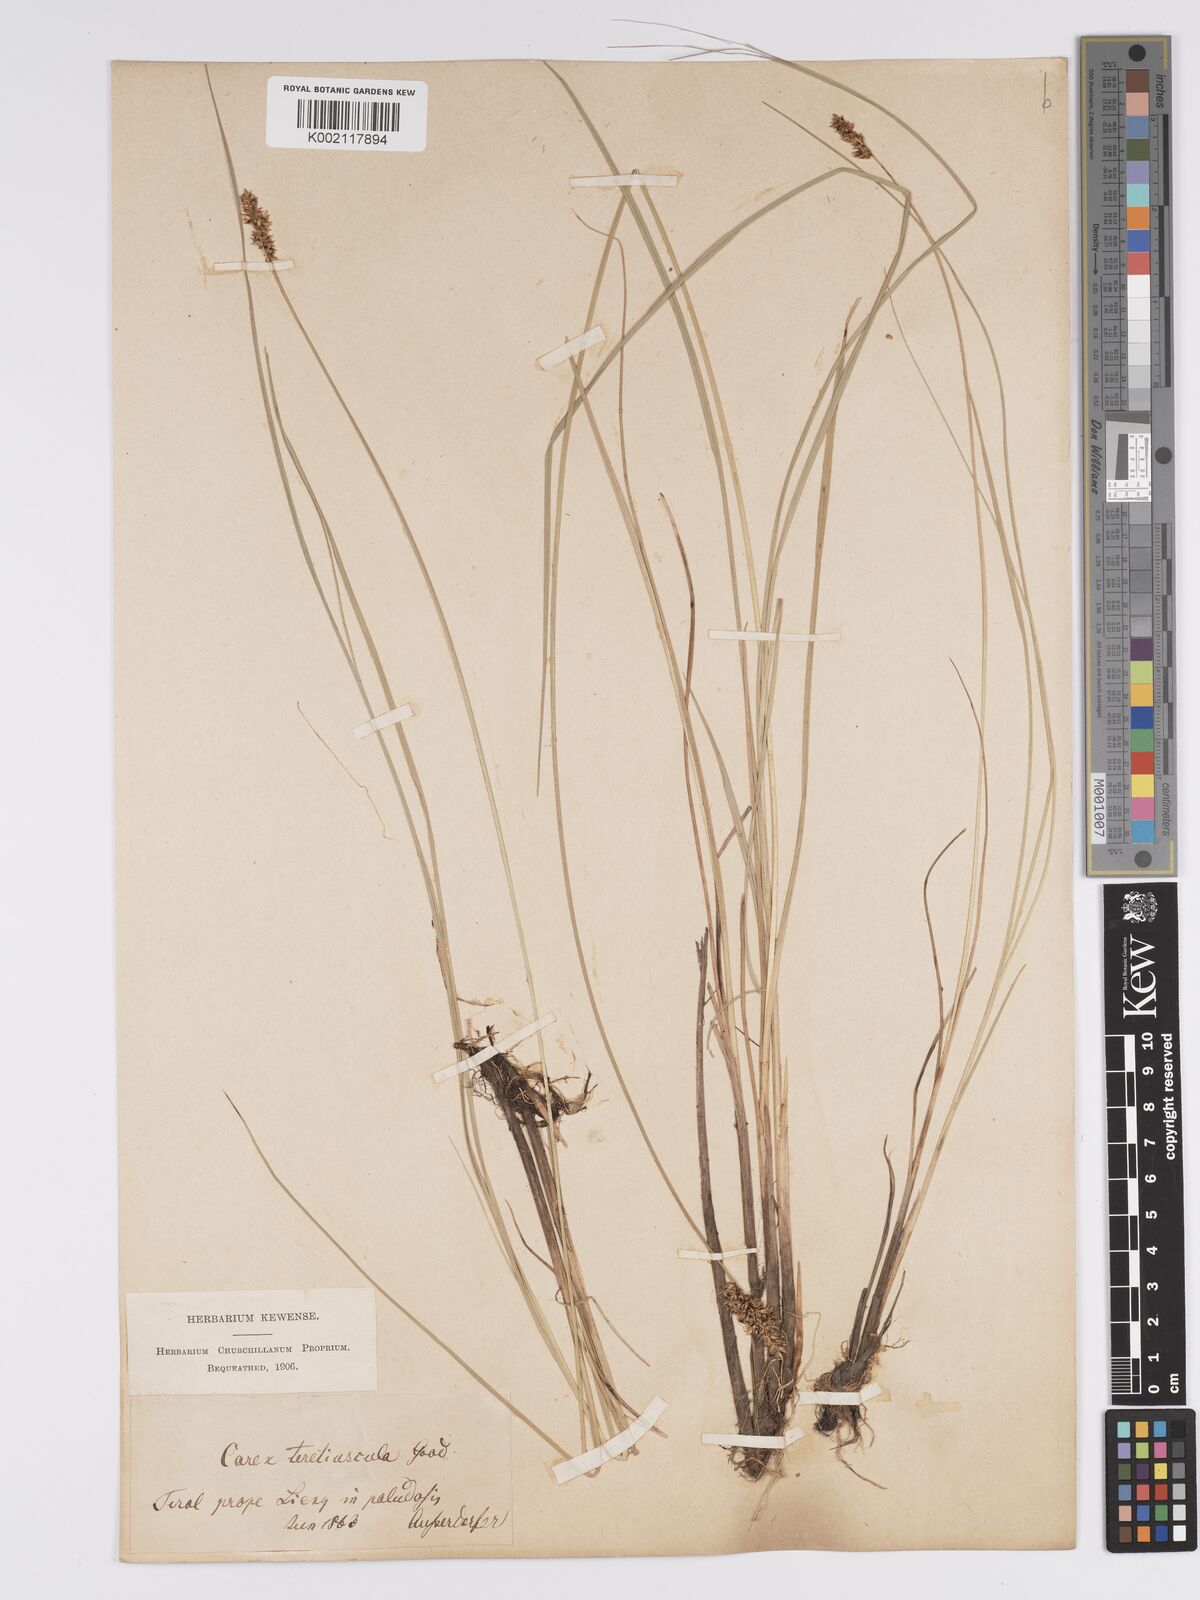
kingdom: Plantae
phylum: Tracheophyta
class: Liliopsida
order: Poales
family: Cyperaceae
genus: Carex
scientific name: Carex diandra
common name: Lesser tussock-sedge
